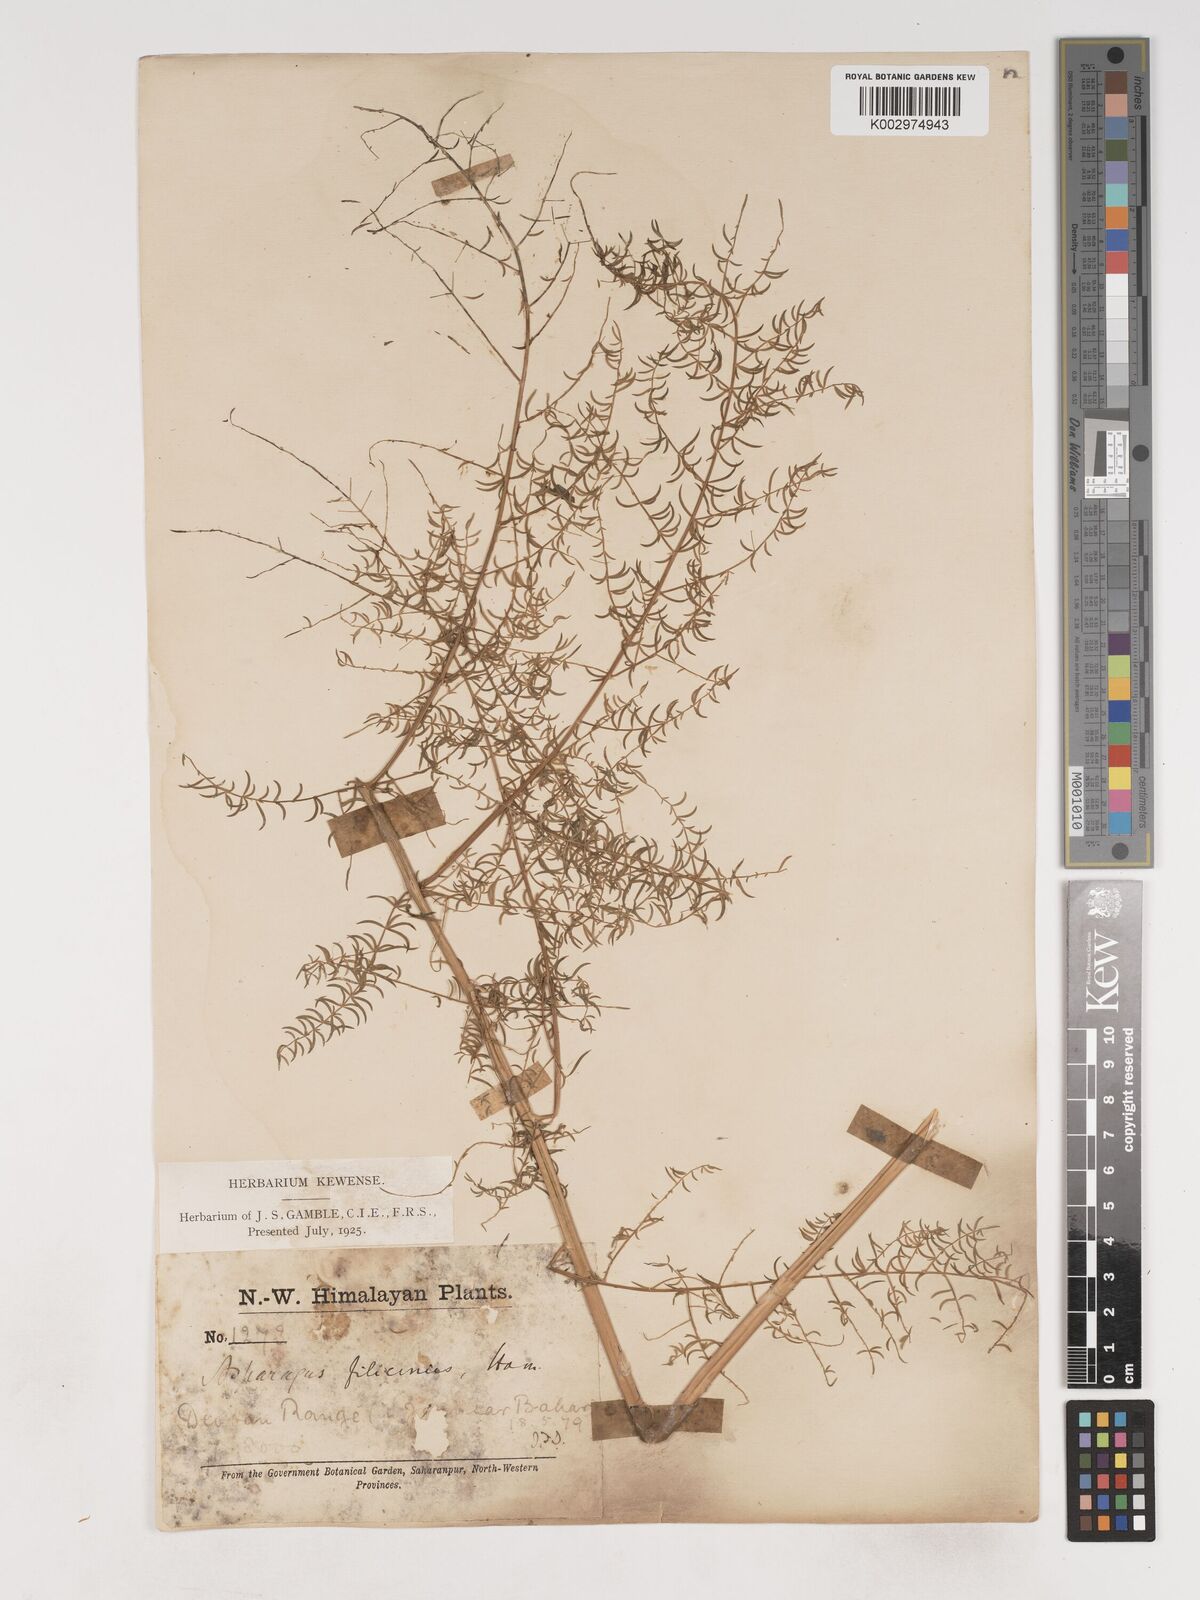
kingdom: Plantae
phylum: Tracheophyta
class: Liliopsida
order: Asparagales
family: Asparagaceae
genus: Asparagus
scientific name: Asparagus filicinus
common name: Fern asparagus
